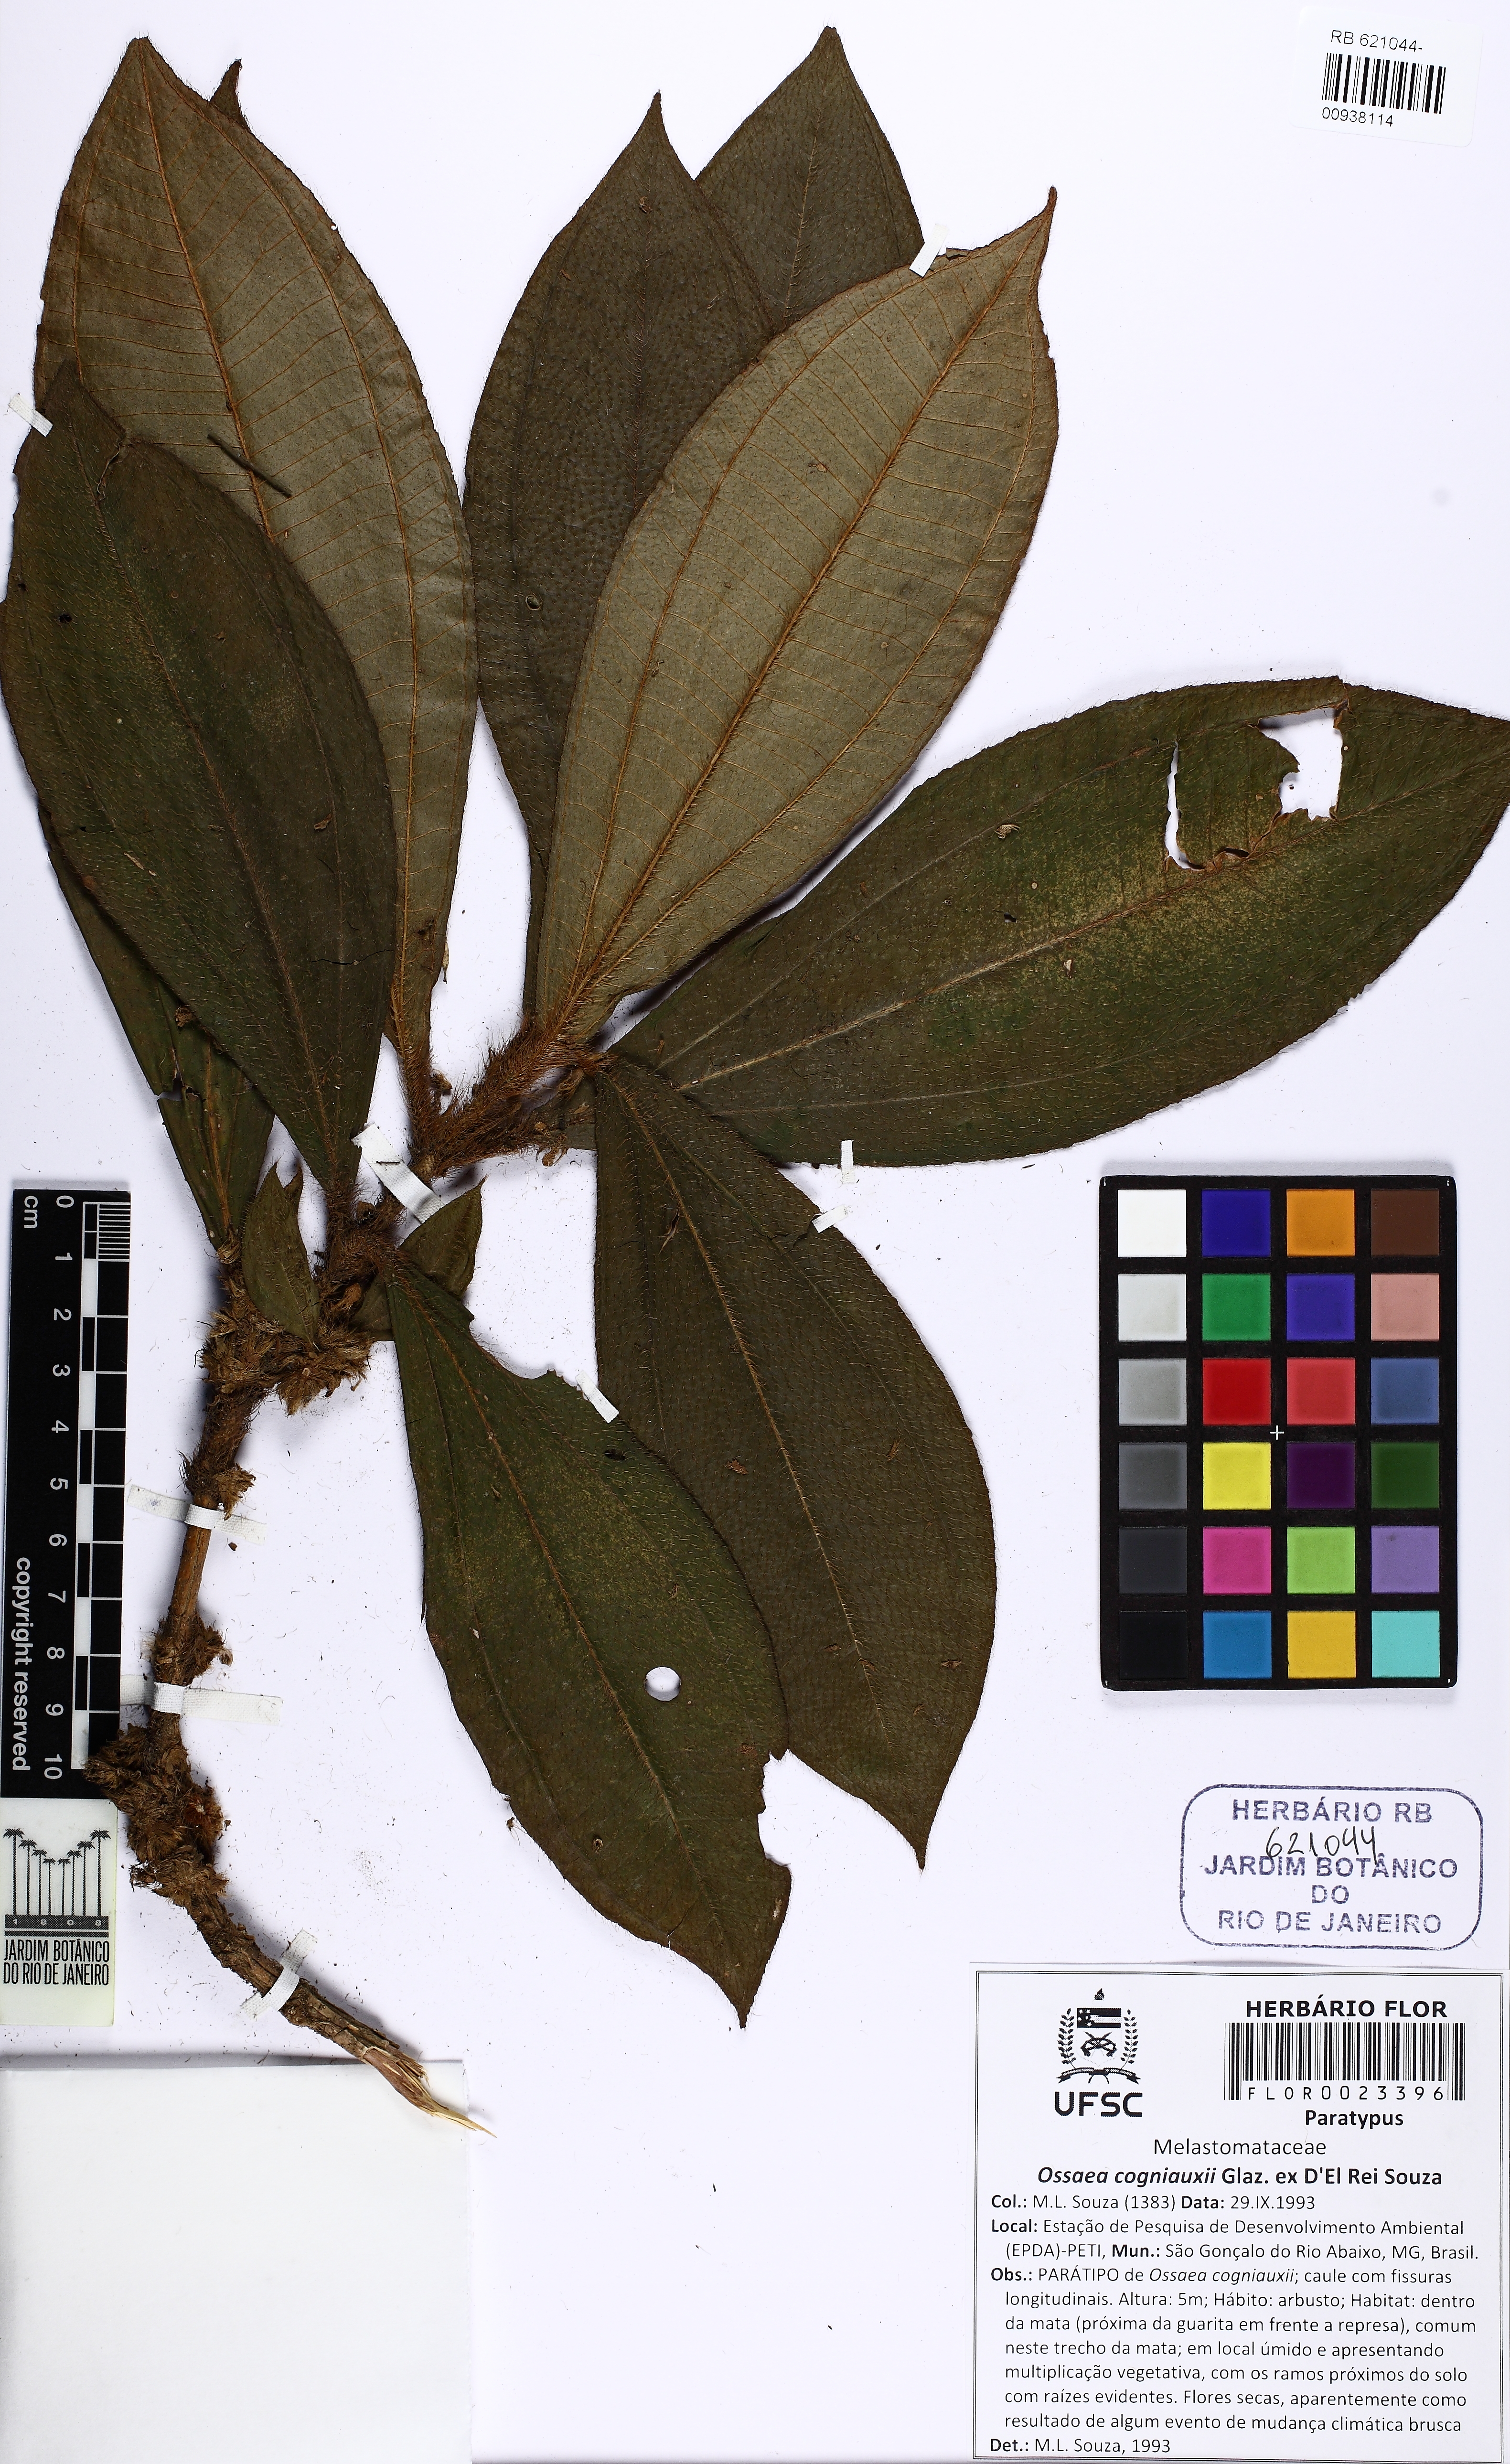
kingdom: Plantae
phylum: Tracheophyta
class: Magnoliopsida
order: Myrtales
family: Melastomataceae
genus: Miconia
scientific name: Miconia cogniauxii
